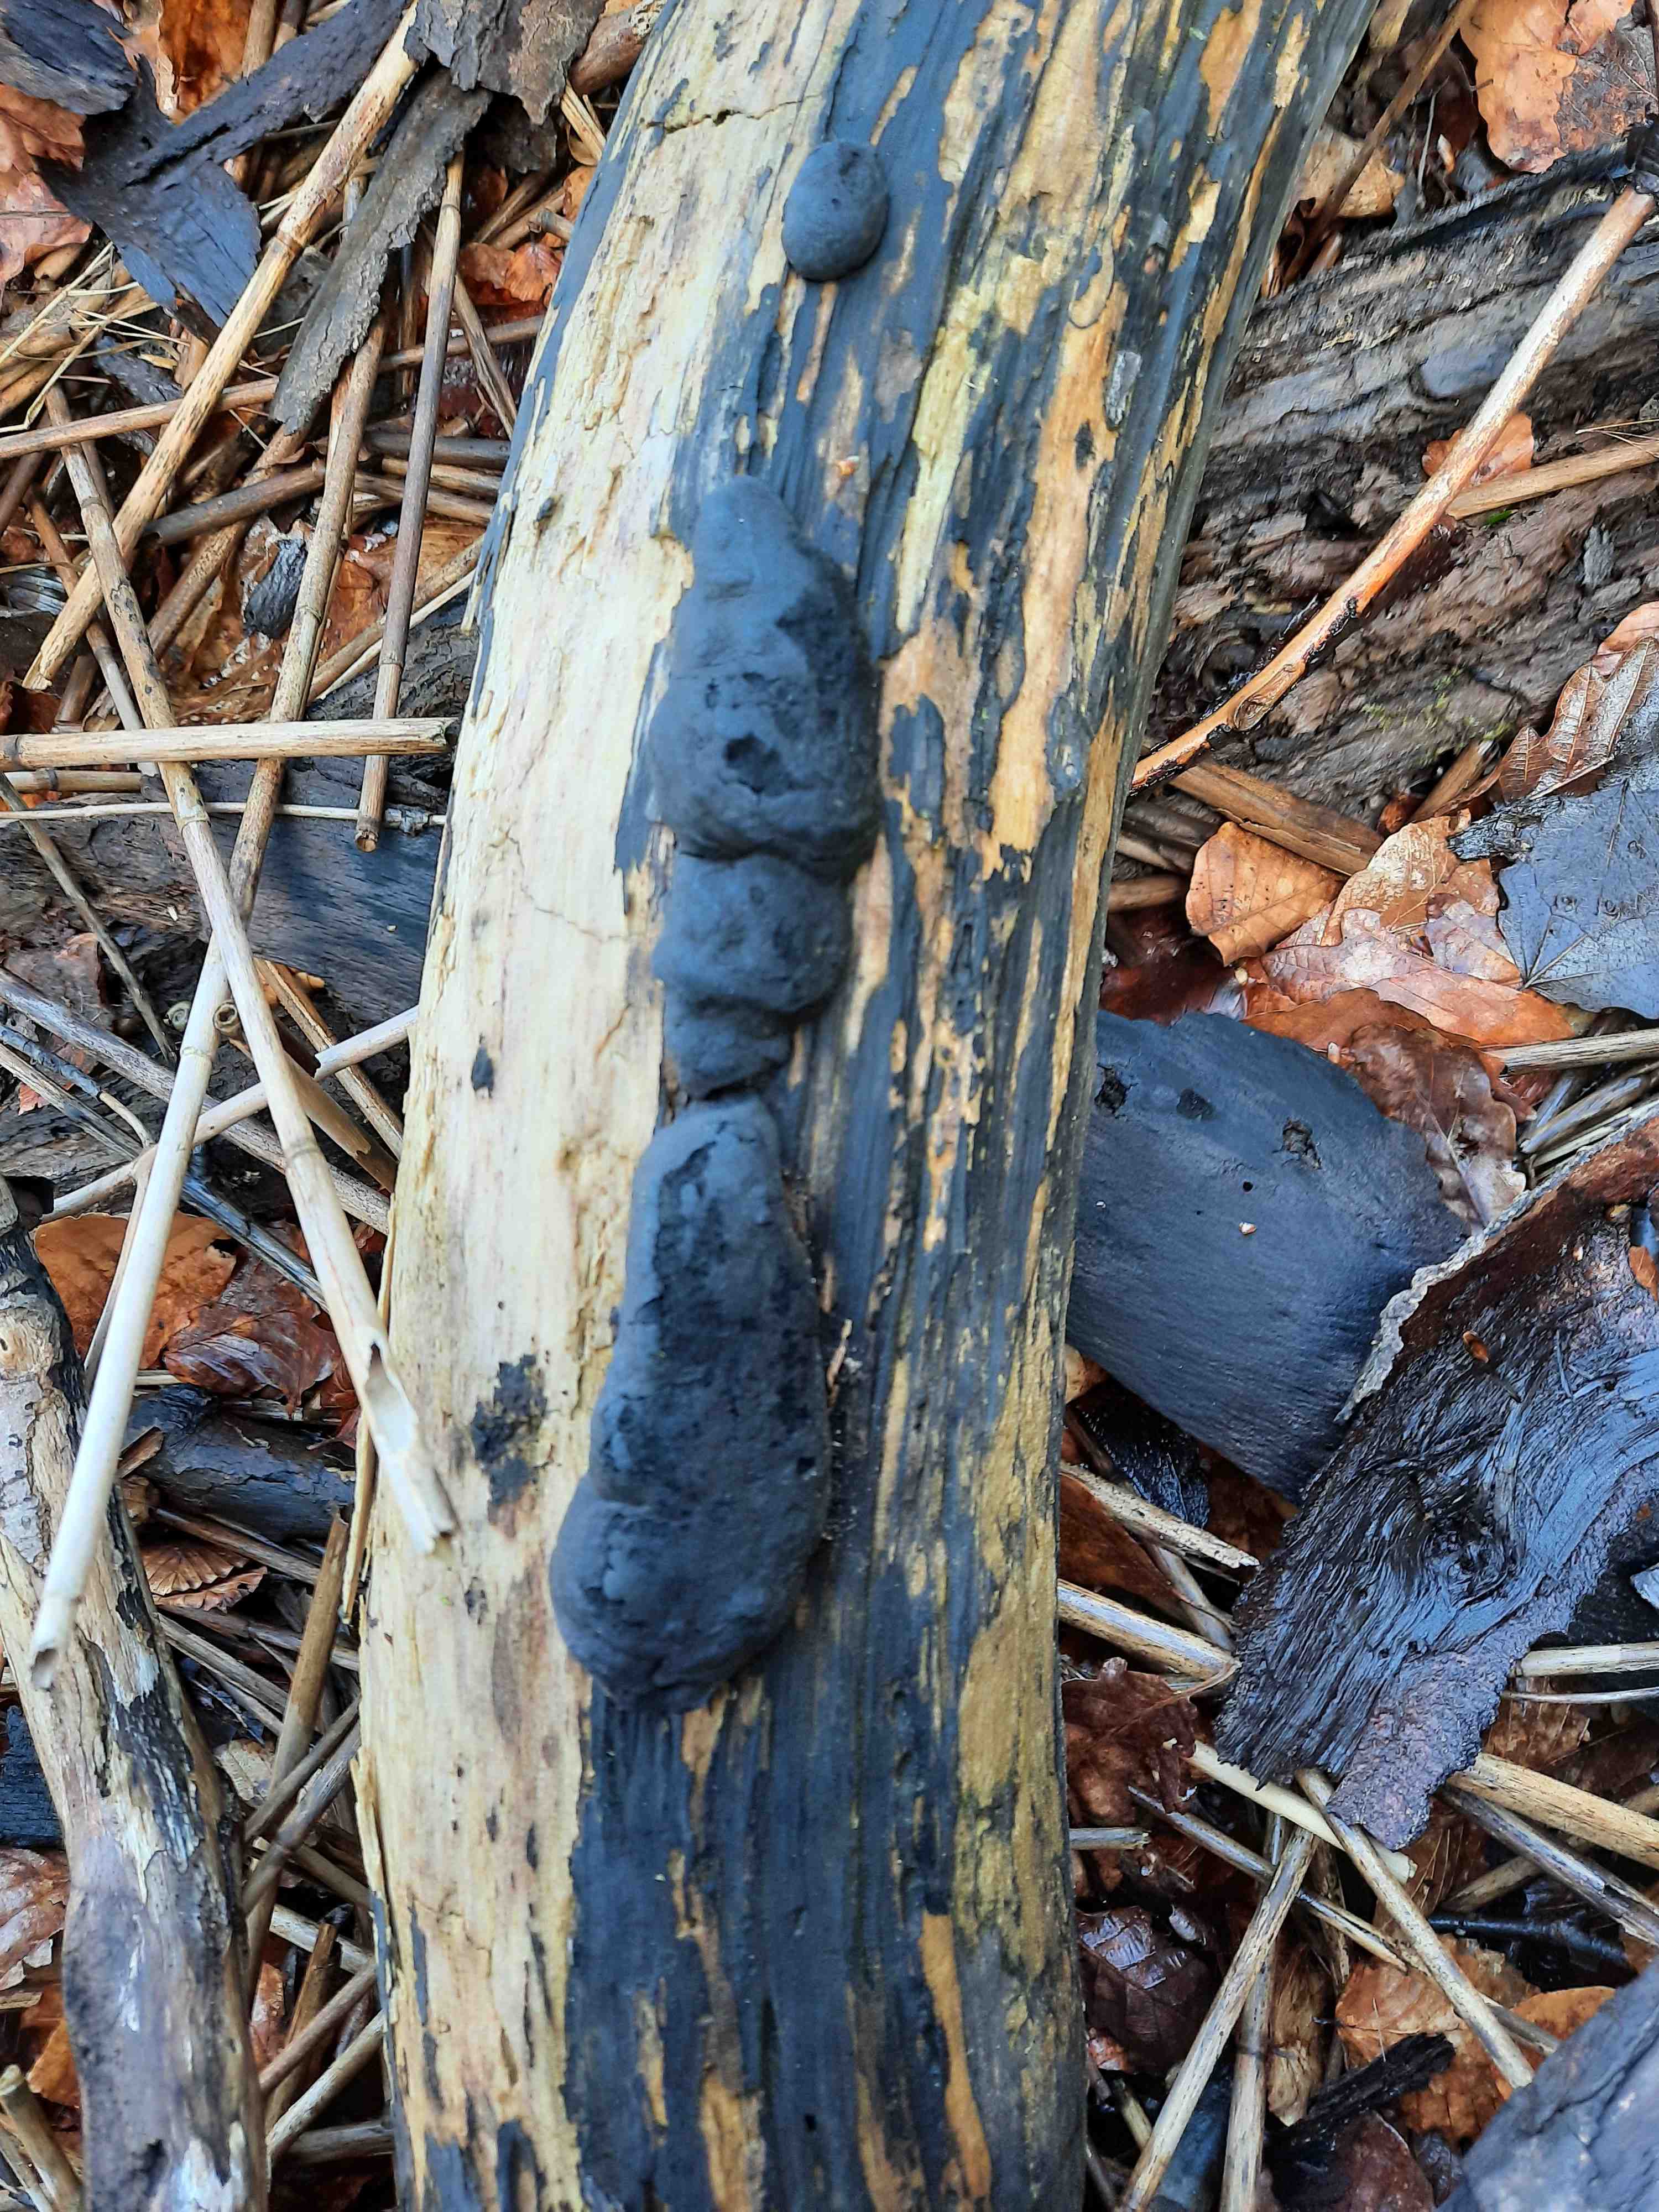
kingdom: Fungi
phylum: Ascomycota
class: Sordariomycetes
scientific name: Sordariomycetes
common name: kernesvampklassen
